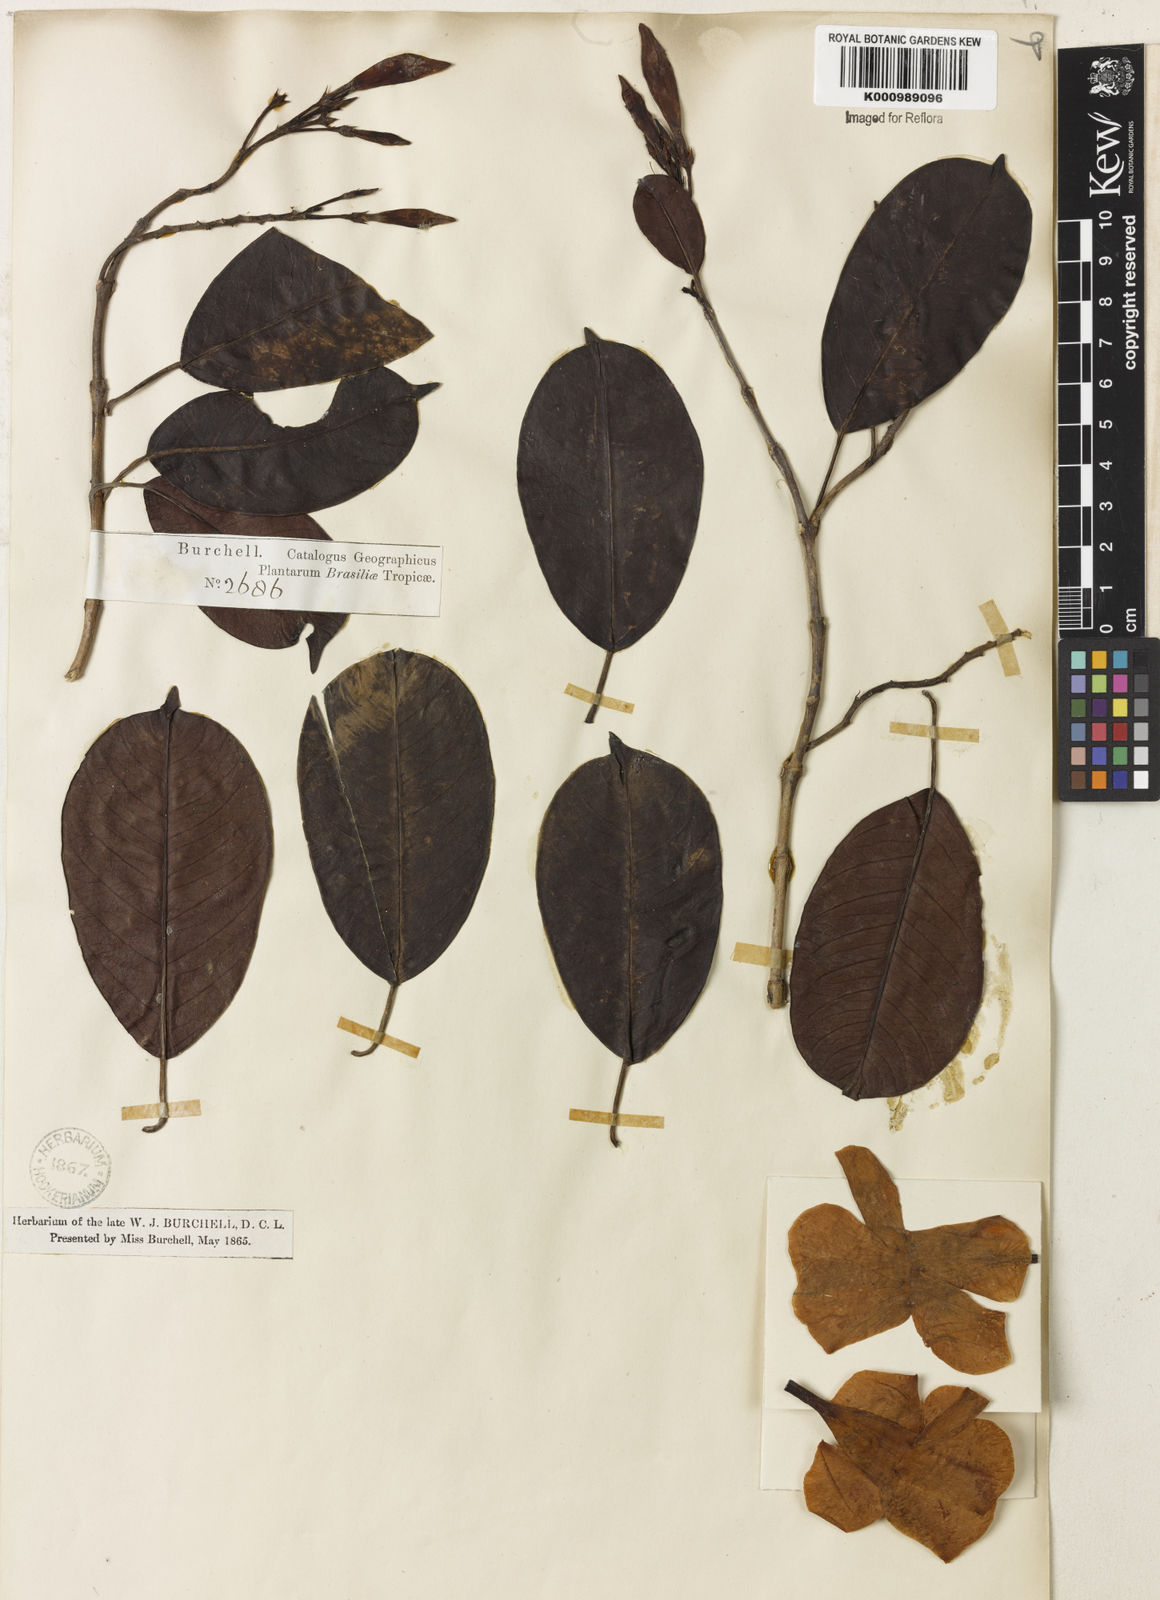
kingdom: Plantae
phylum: Tracheophyta
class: Magnoliopsida
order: Gentianales
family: Apocynaceae
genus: Mandevilla
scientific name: Mandevilla fragrans
